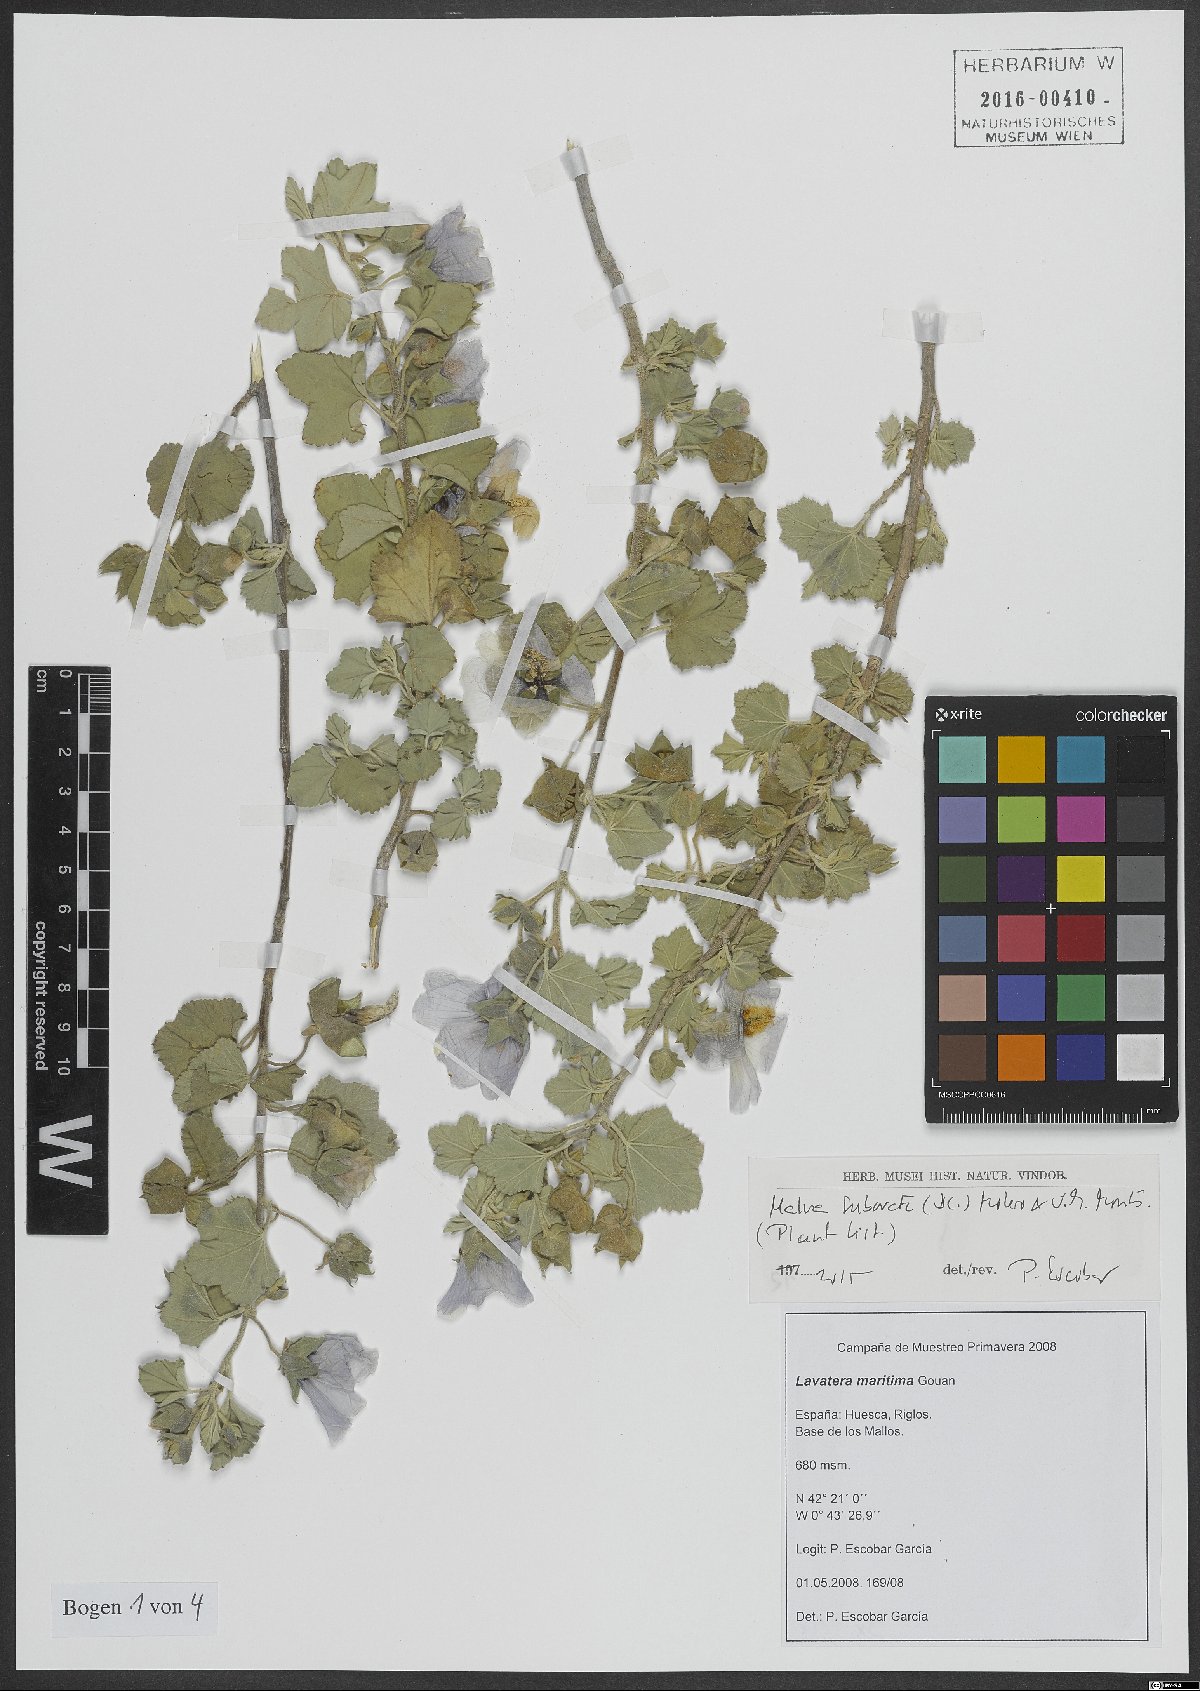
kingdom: Plantae
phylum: Tracheophyta
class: Magnoliopsida
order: Malvales
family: Malvaceae
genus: Malva
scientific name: Malva subovata
